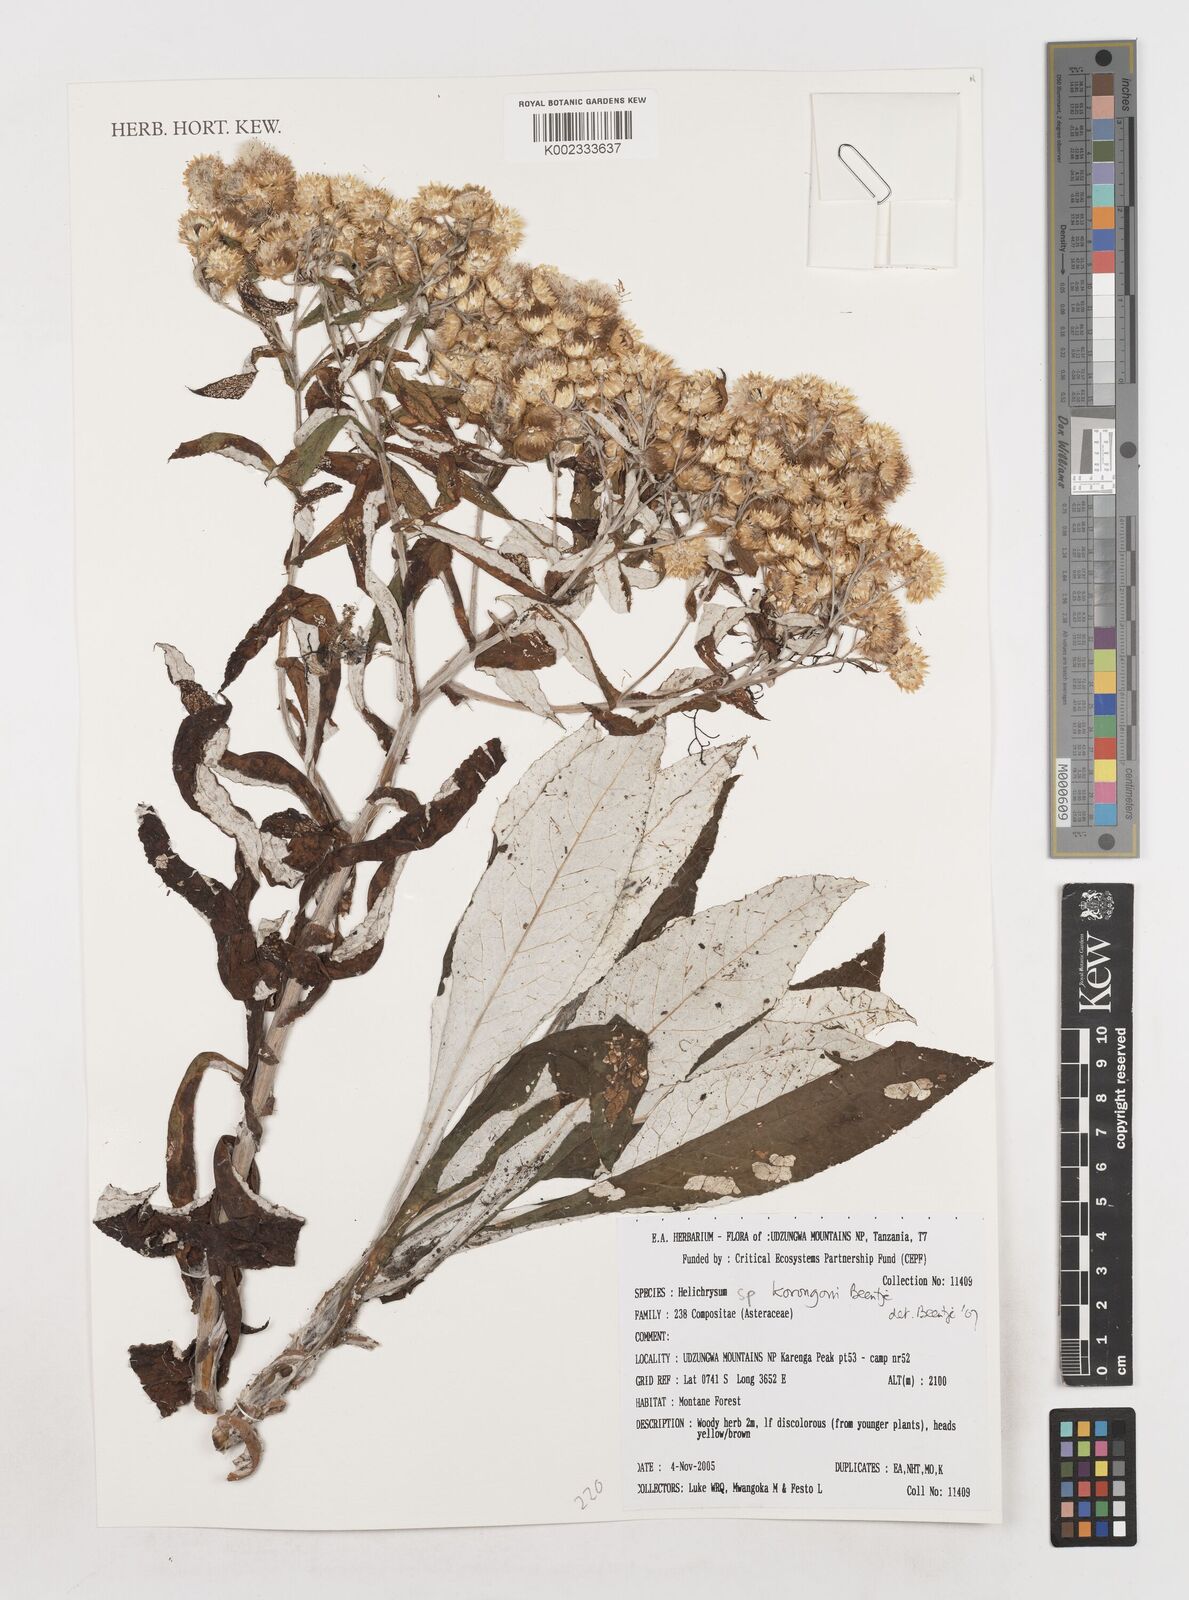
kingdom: Plantae
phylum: Tracheophyta
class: Magnoliopsida
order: Asterales
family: Asteraceae
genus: Helichrysum
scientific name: Helichrysum korongoni
